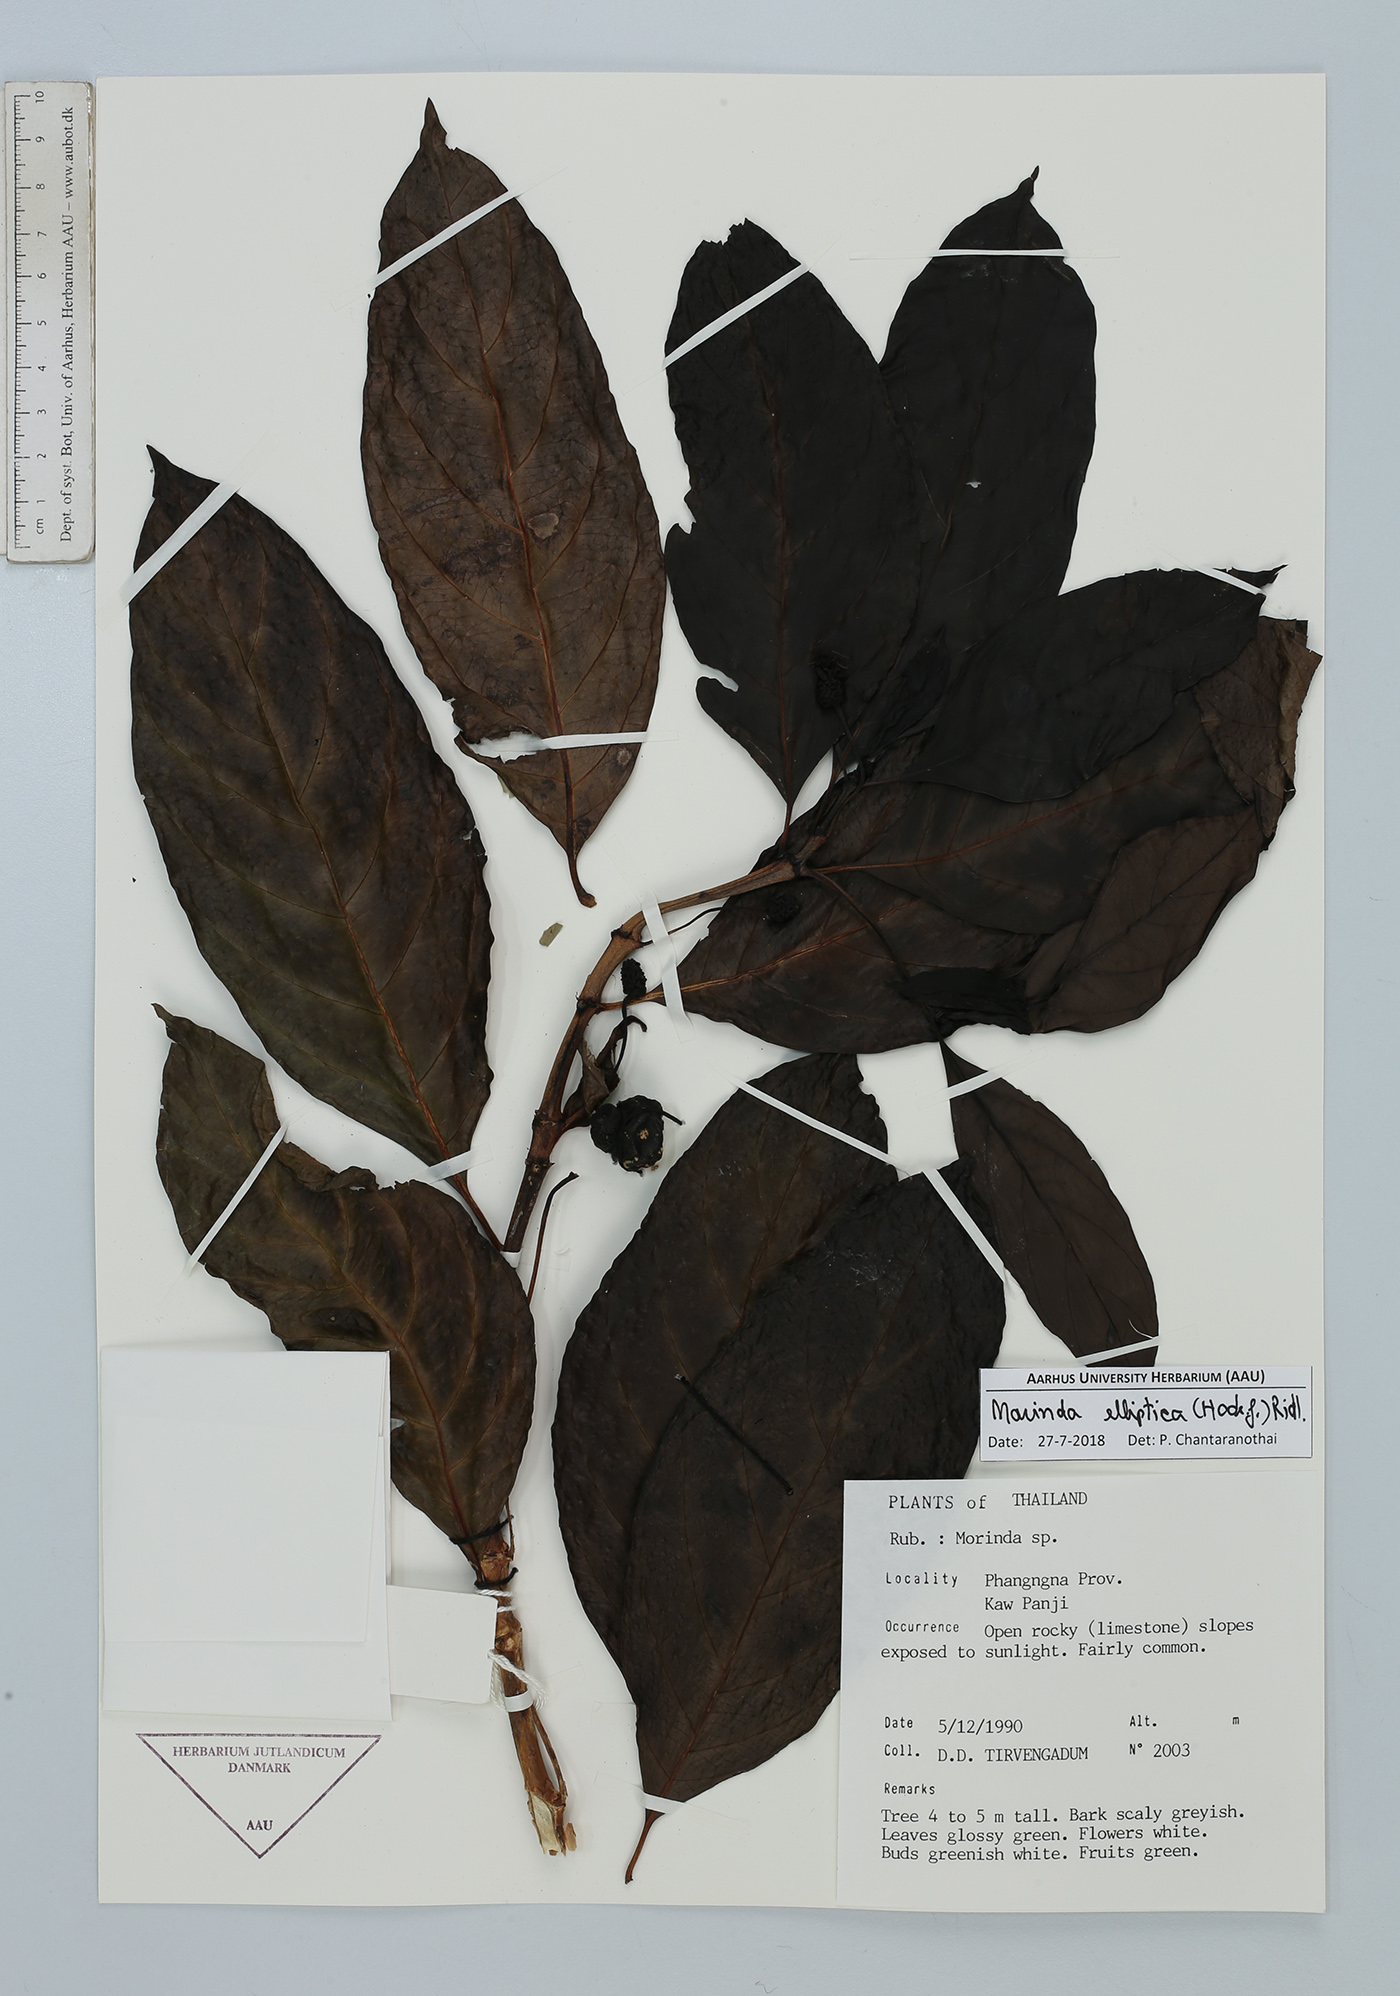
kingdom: Plantae
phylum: Tracheophyta
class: Magnoliopsida
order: Gentianales
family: Rubiaceae
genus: Morinda
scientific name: Morinda elliptica
